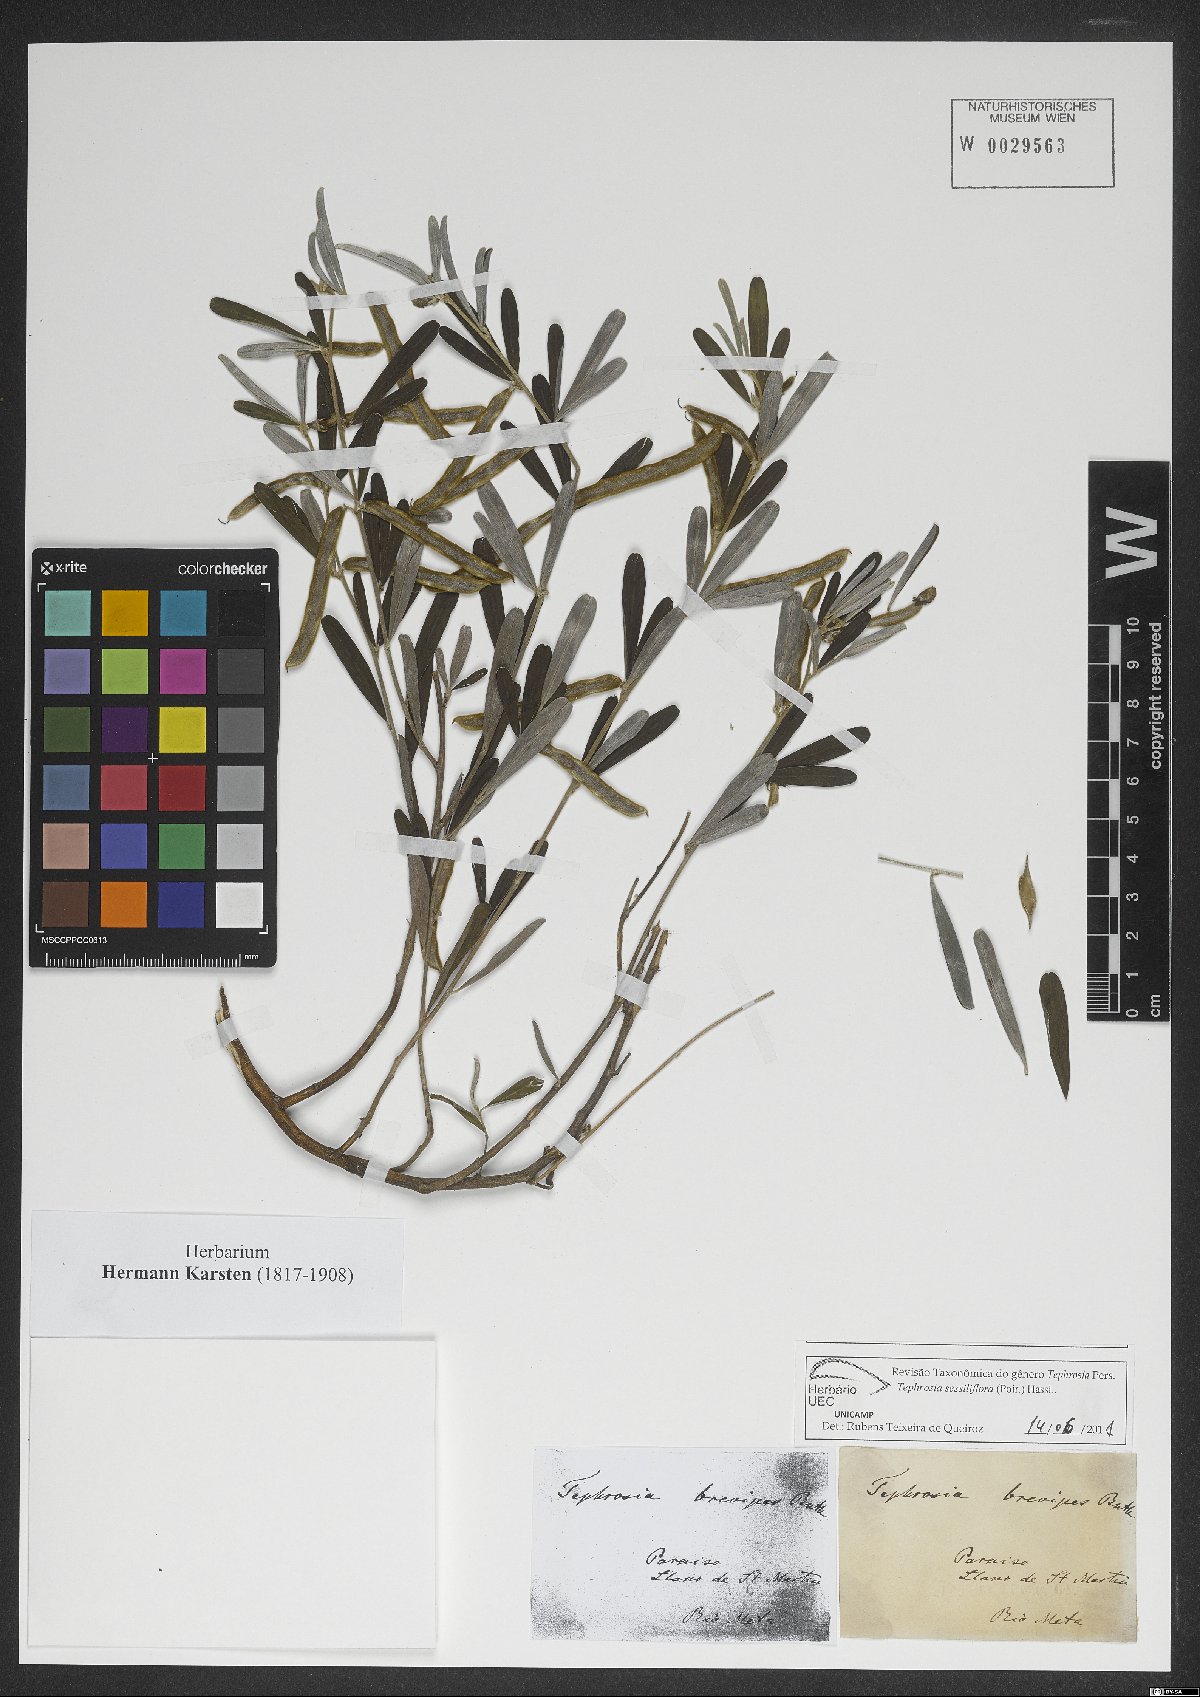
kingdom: Plantae
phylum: Tracheophyta
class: Magnoliopsida
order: Fabales
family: Fabaceae
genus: Tephrosia
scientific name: Tephrosia sessiliflora
